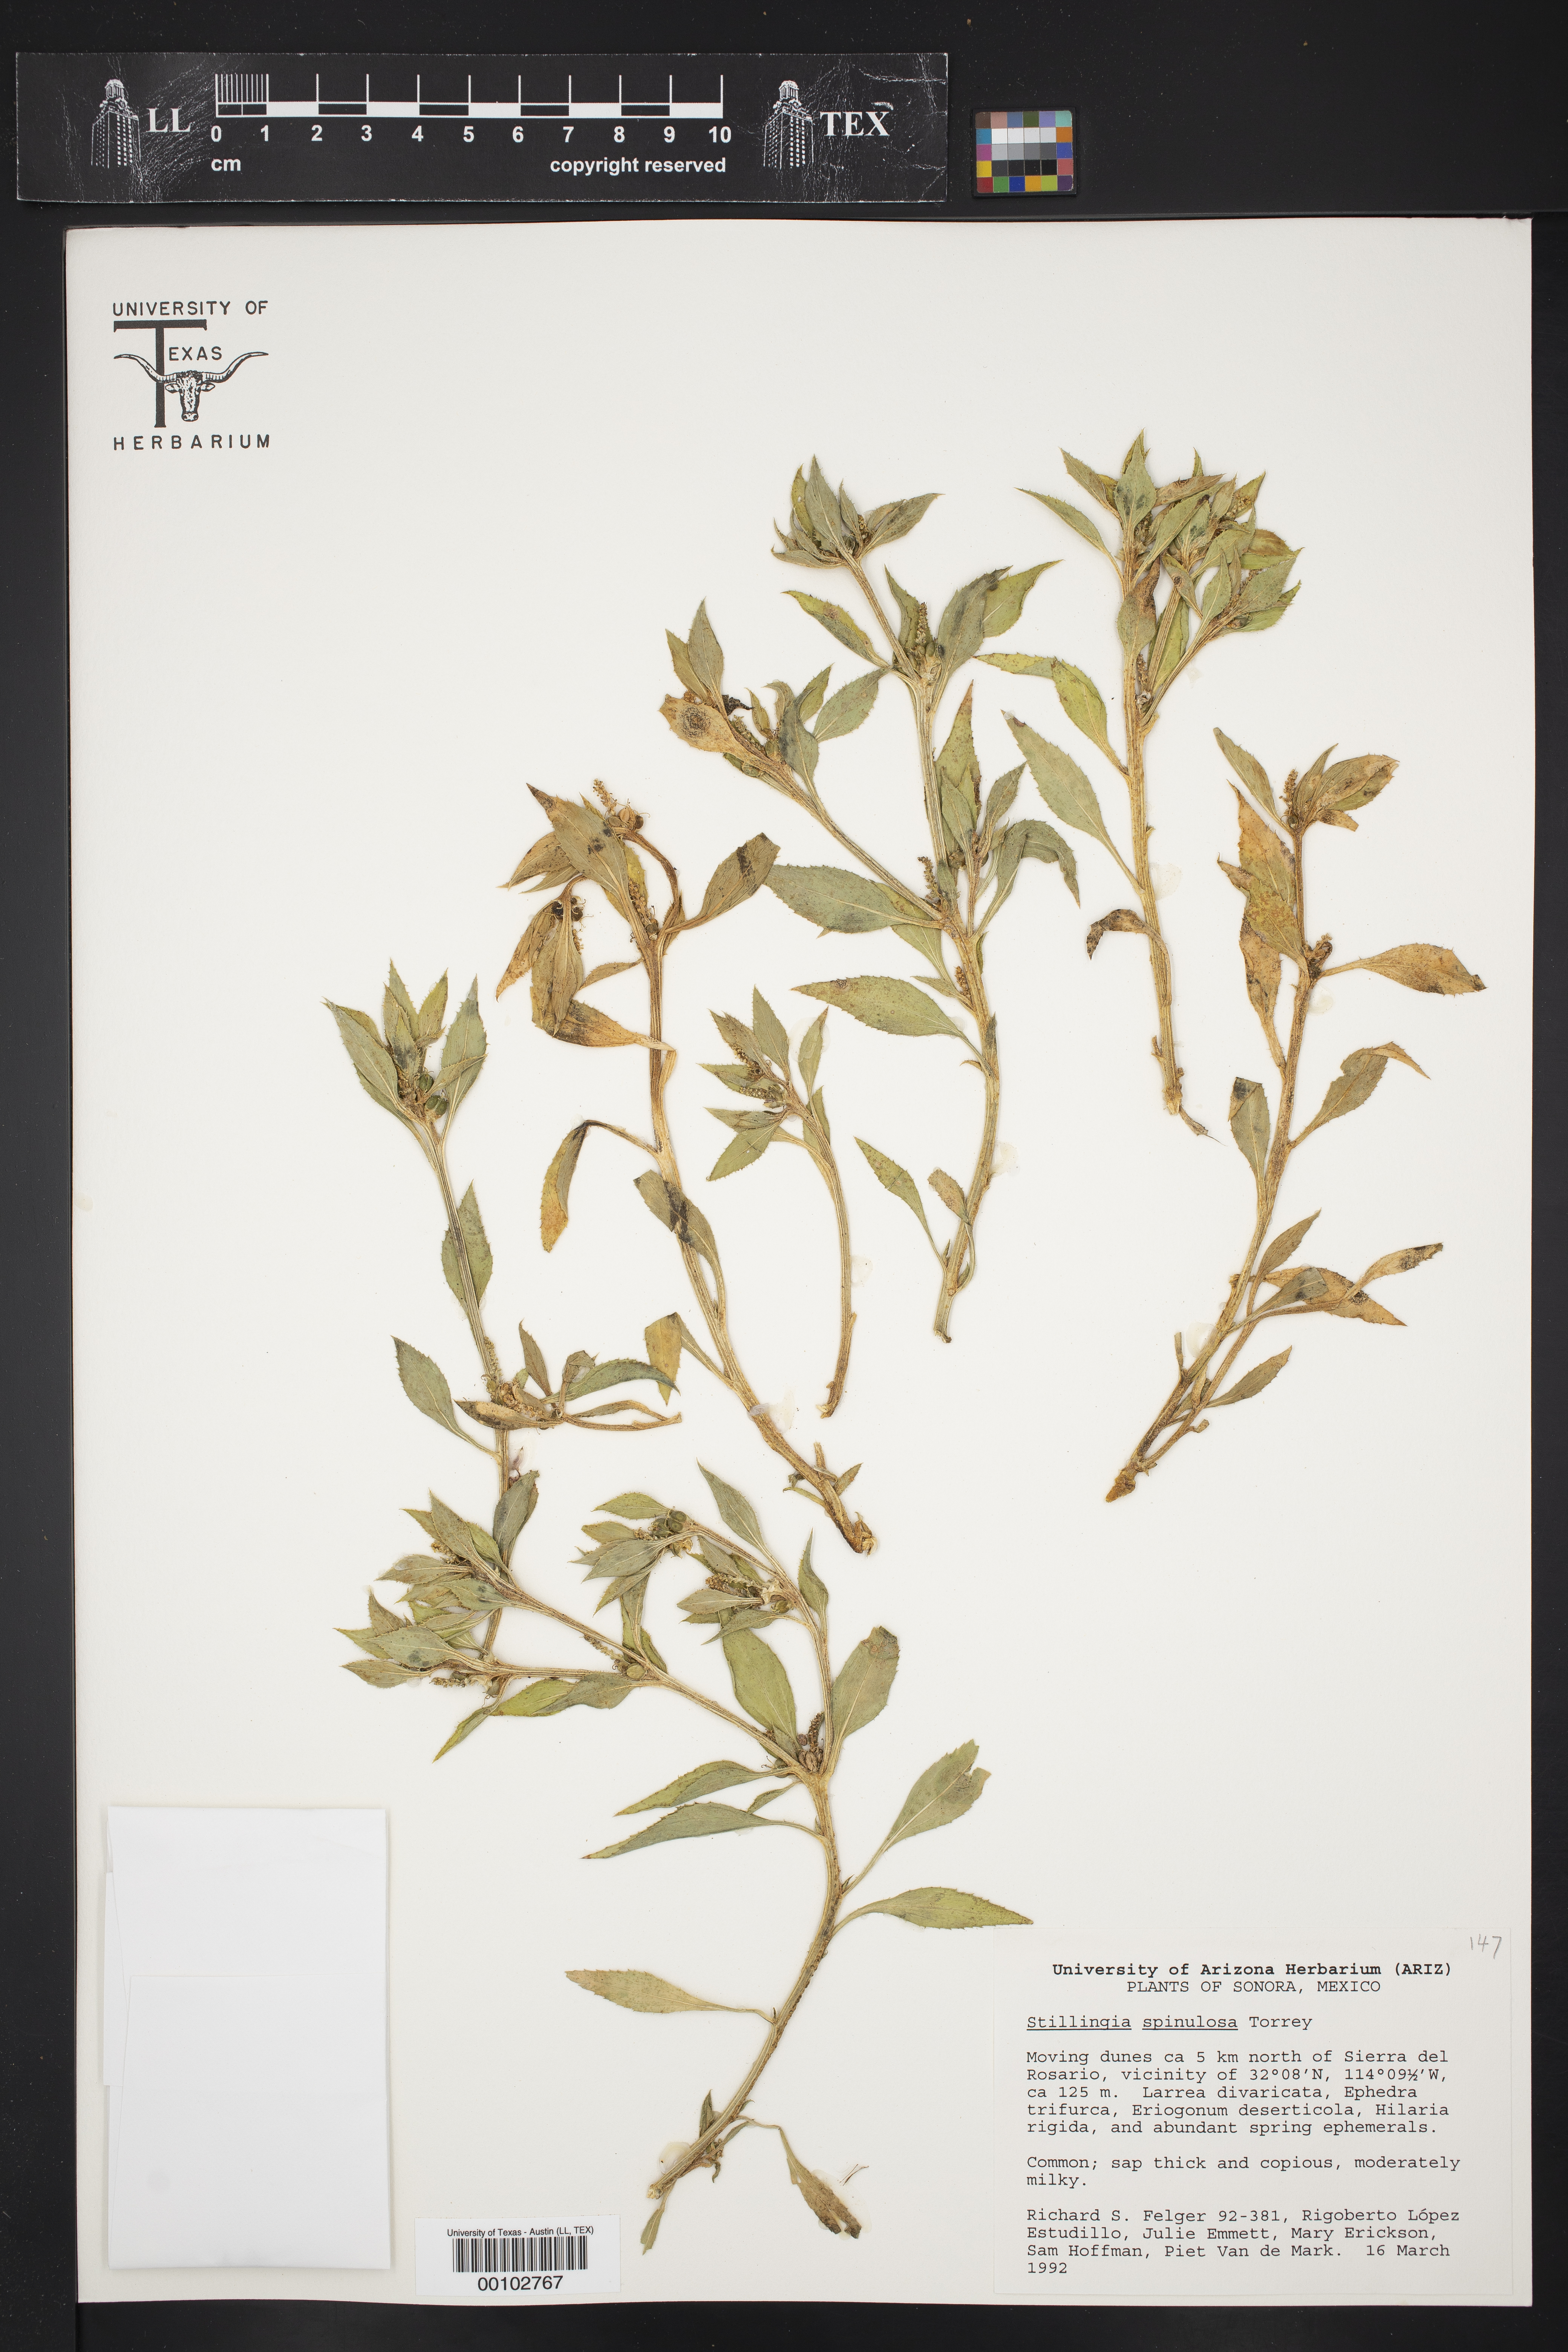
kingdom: Plantae
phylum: Tracheophyta
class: Magnoliopsida
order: Malpighiales
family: Euphorbiaceae
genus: Stillingia
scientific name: Stillingia spinulosa
